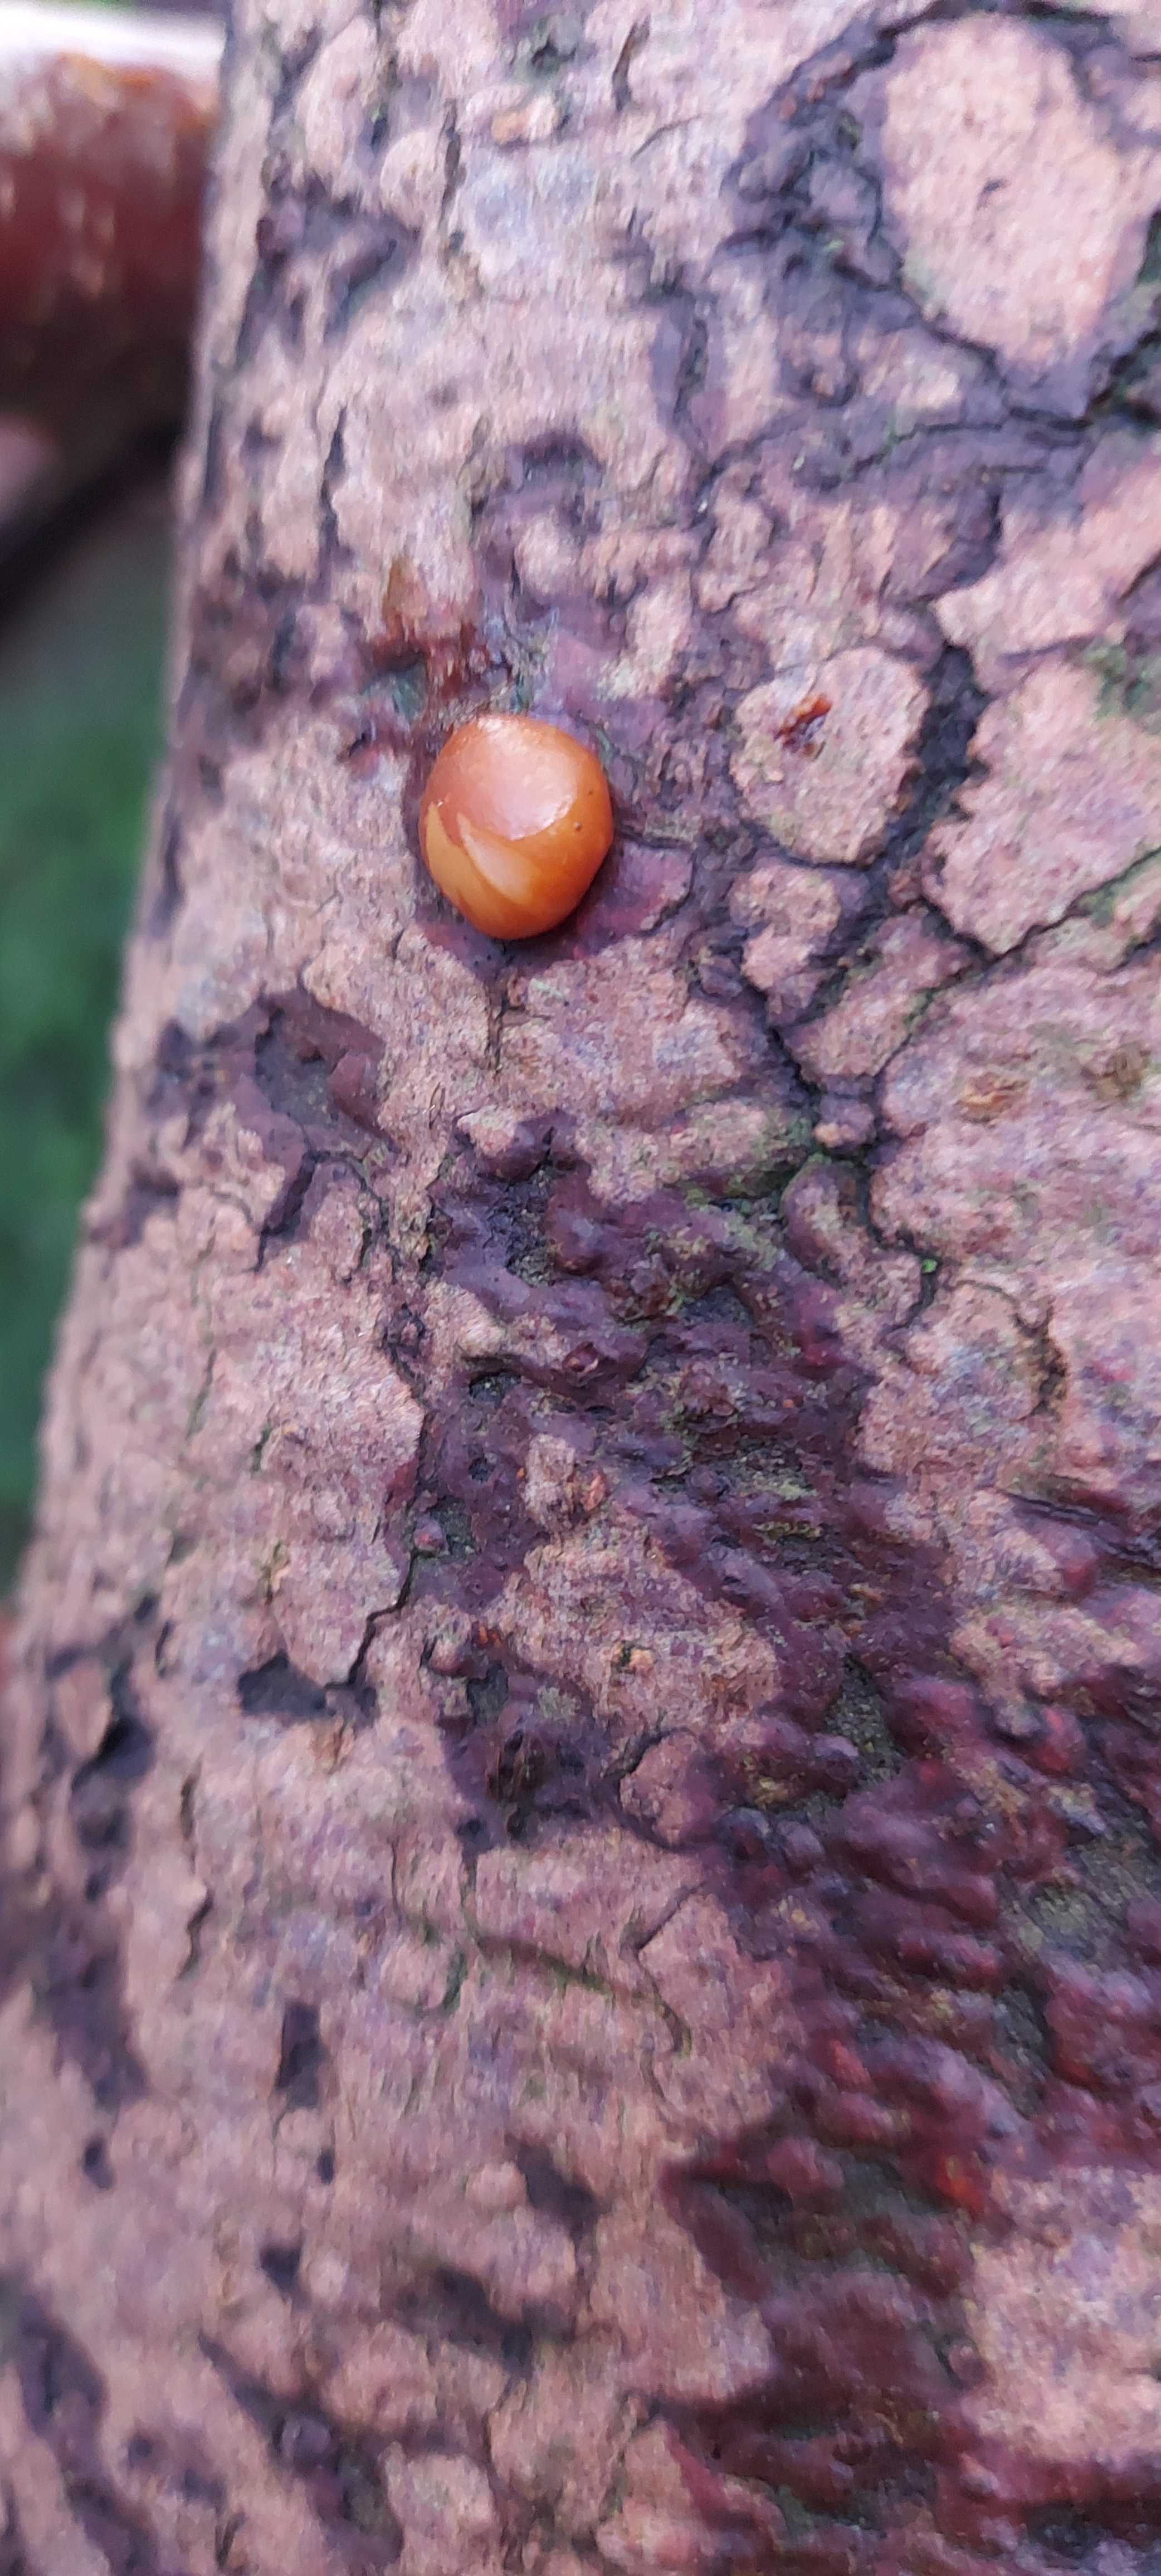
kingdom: Fungi
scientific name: Fungi
